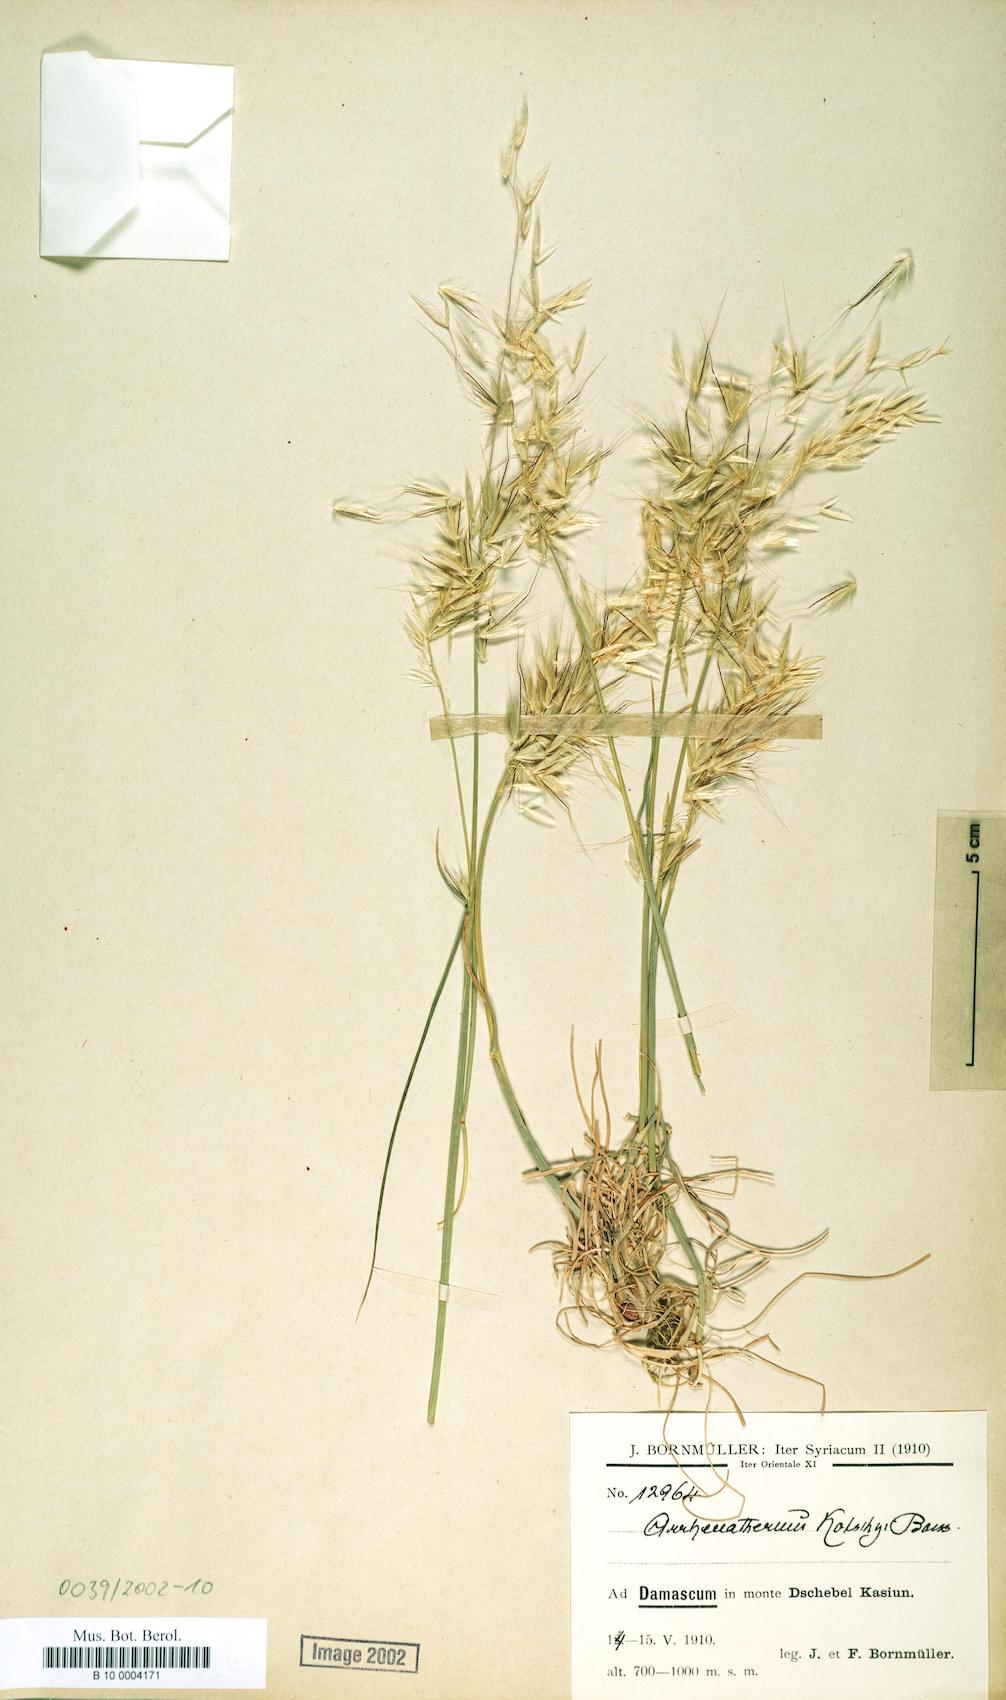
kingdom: Plantae
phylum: Tracheophyta
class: Liliopsida
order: Poales
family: Poaceae
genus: Arrhenatherum
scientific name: Arrhenatherum kotschyi
